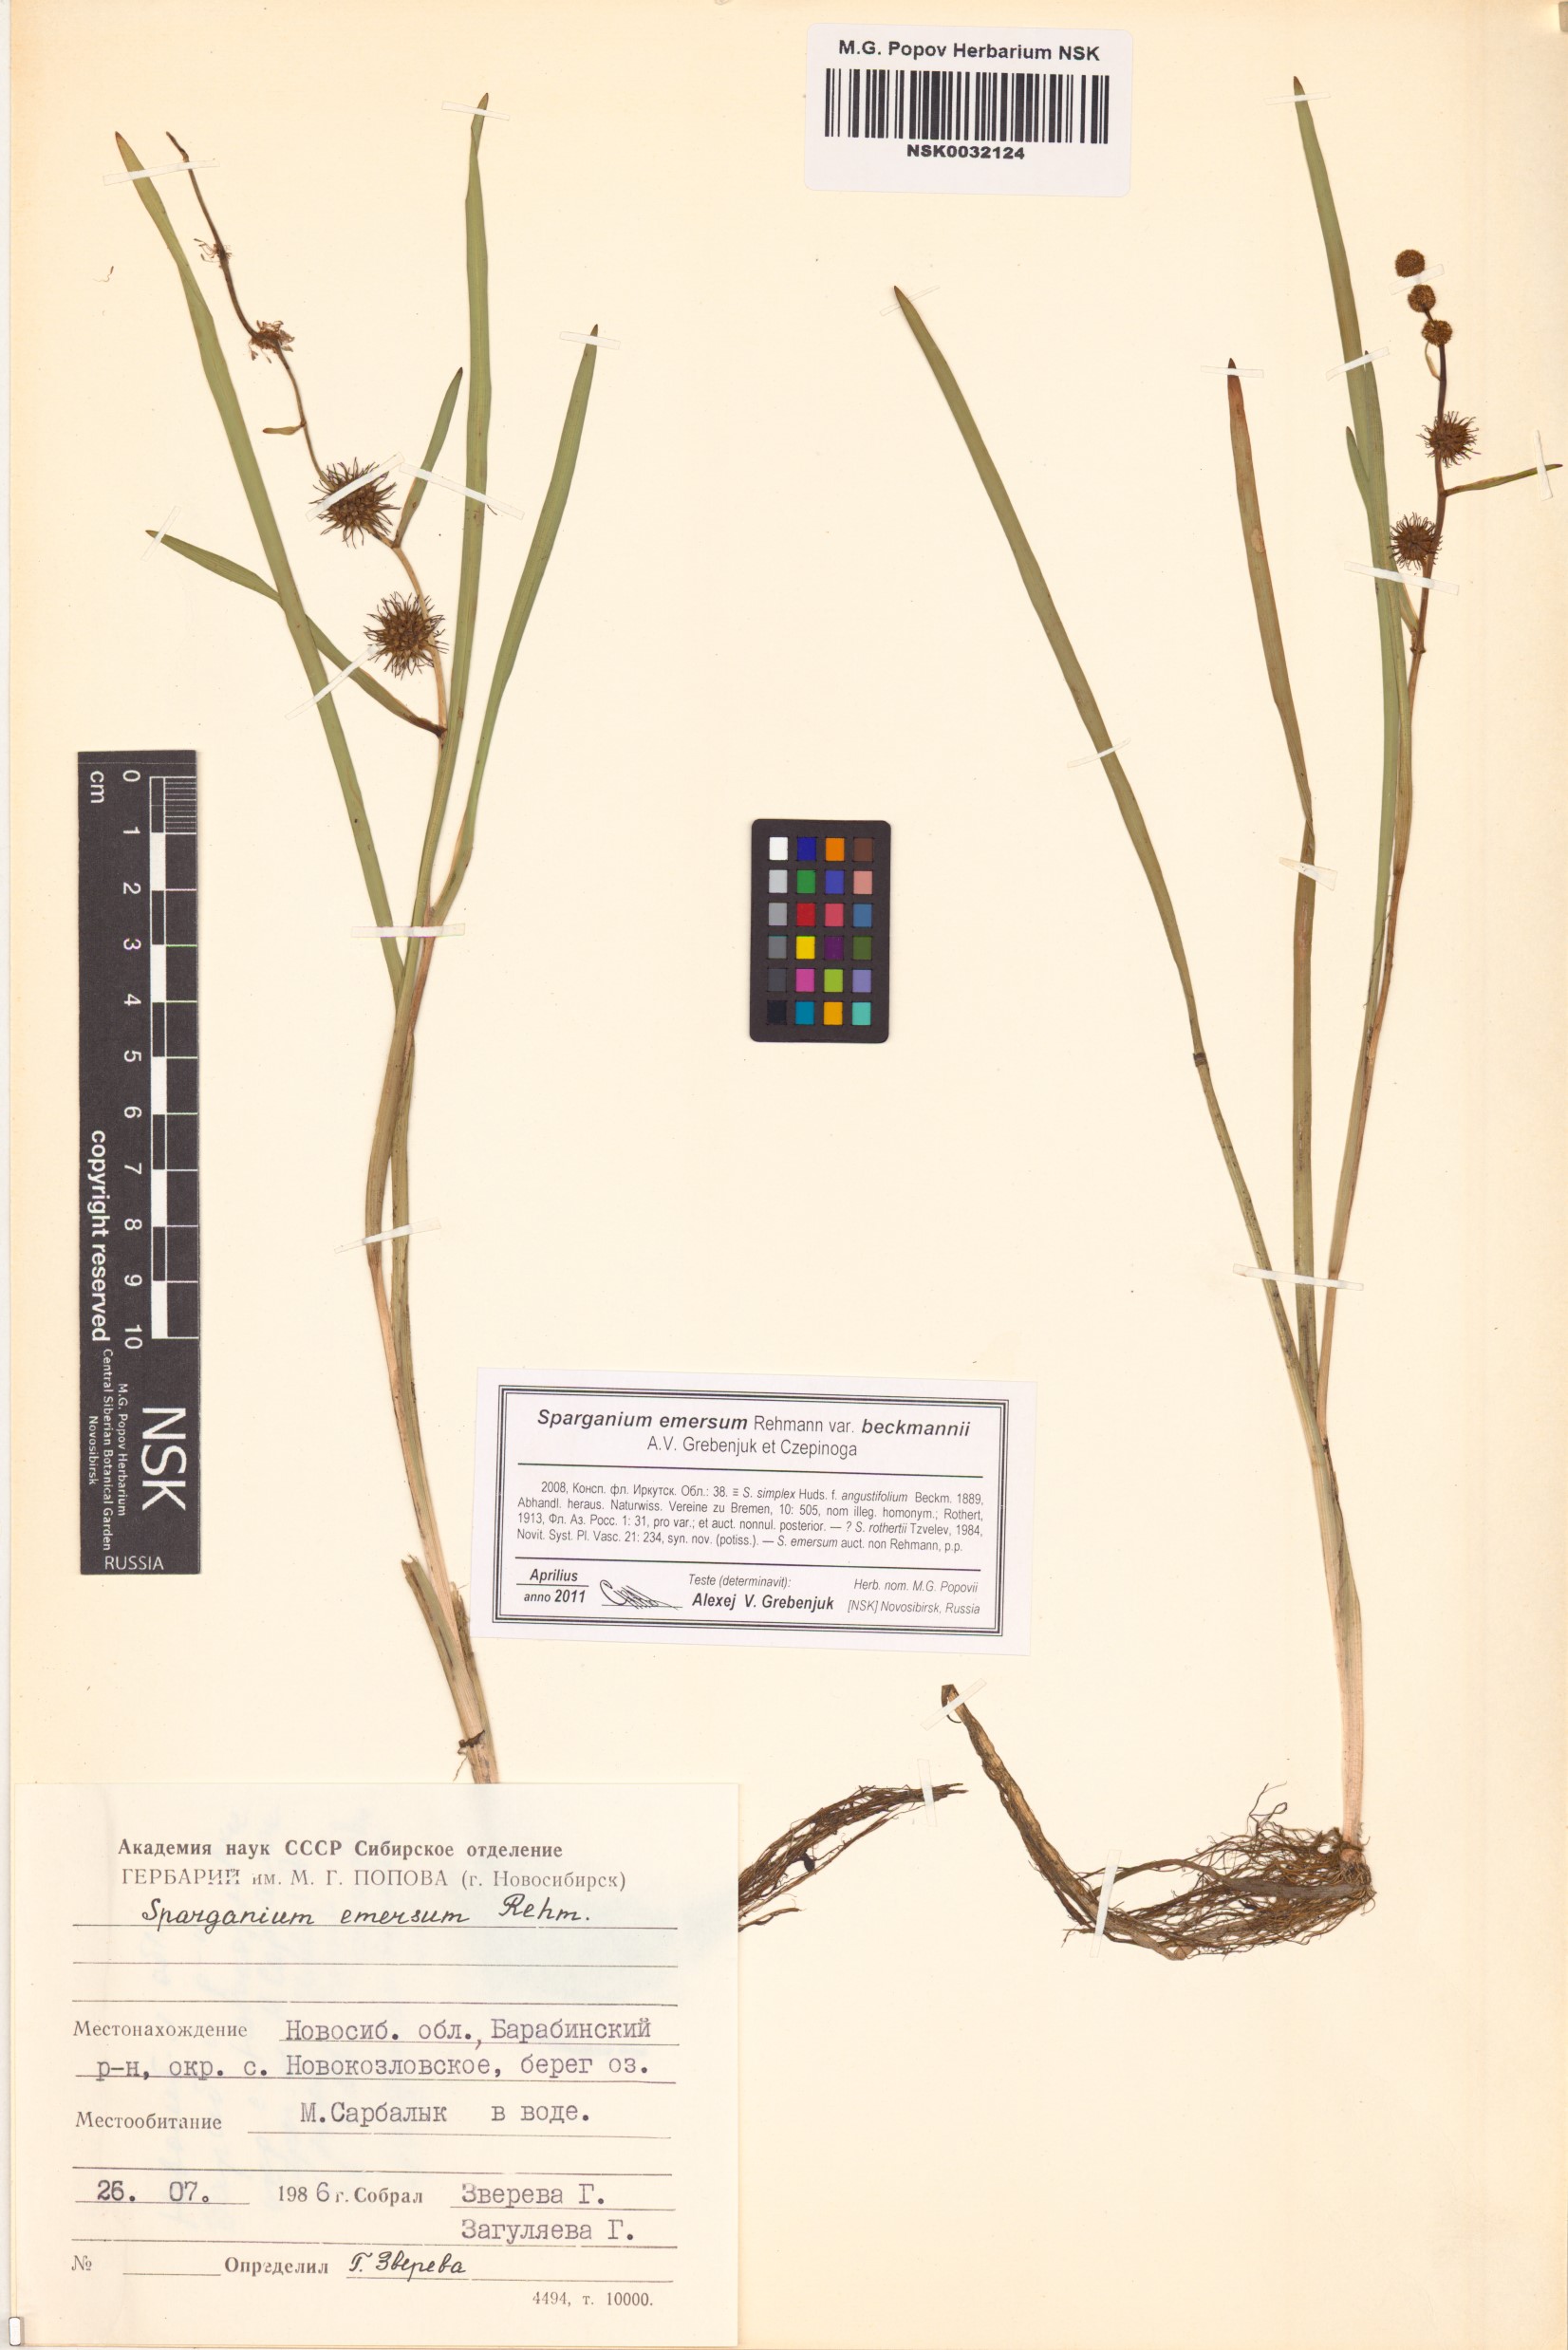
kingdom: Plantae
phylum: Tracheophyta
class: Liliopsida
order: Poales
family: Typhaceae
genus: Sparganium
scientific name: Sparganium emersum
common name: Unbranched bur-reed
